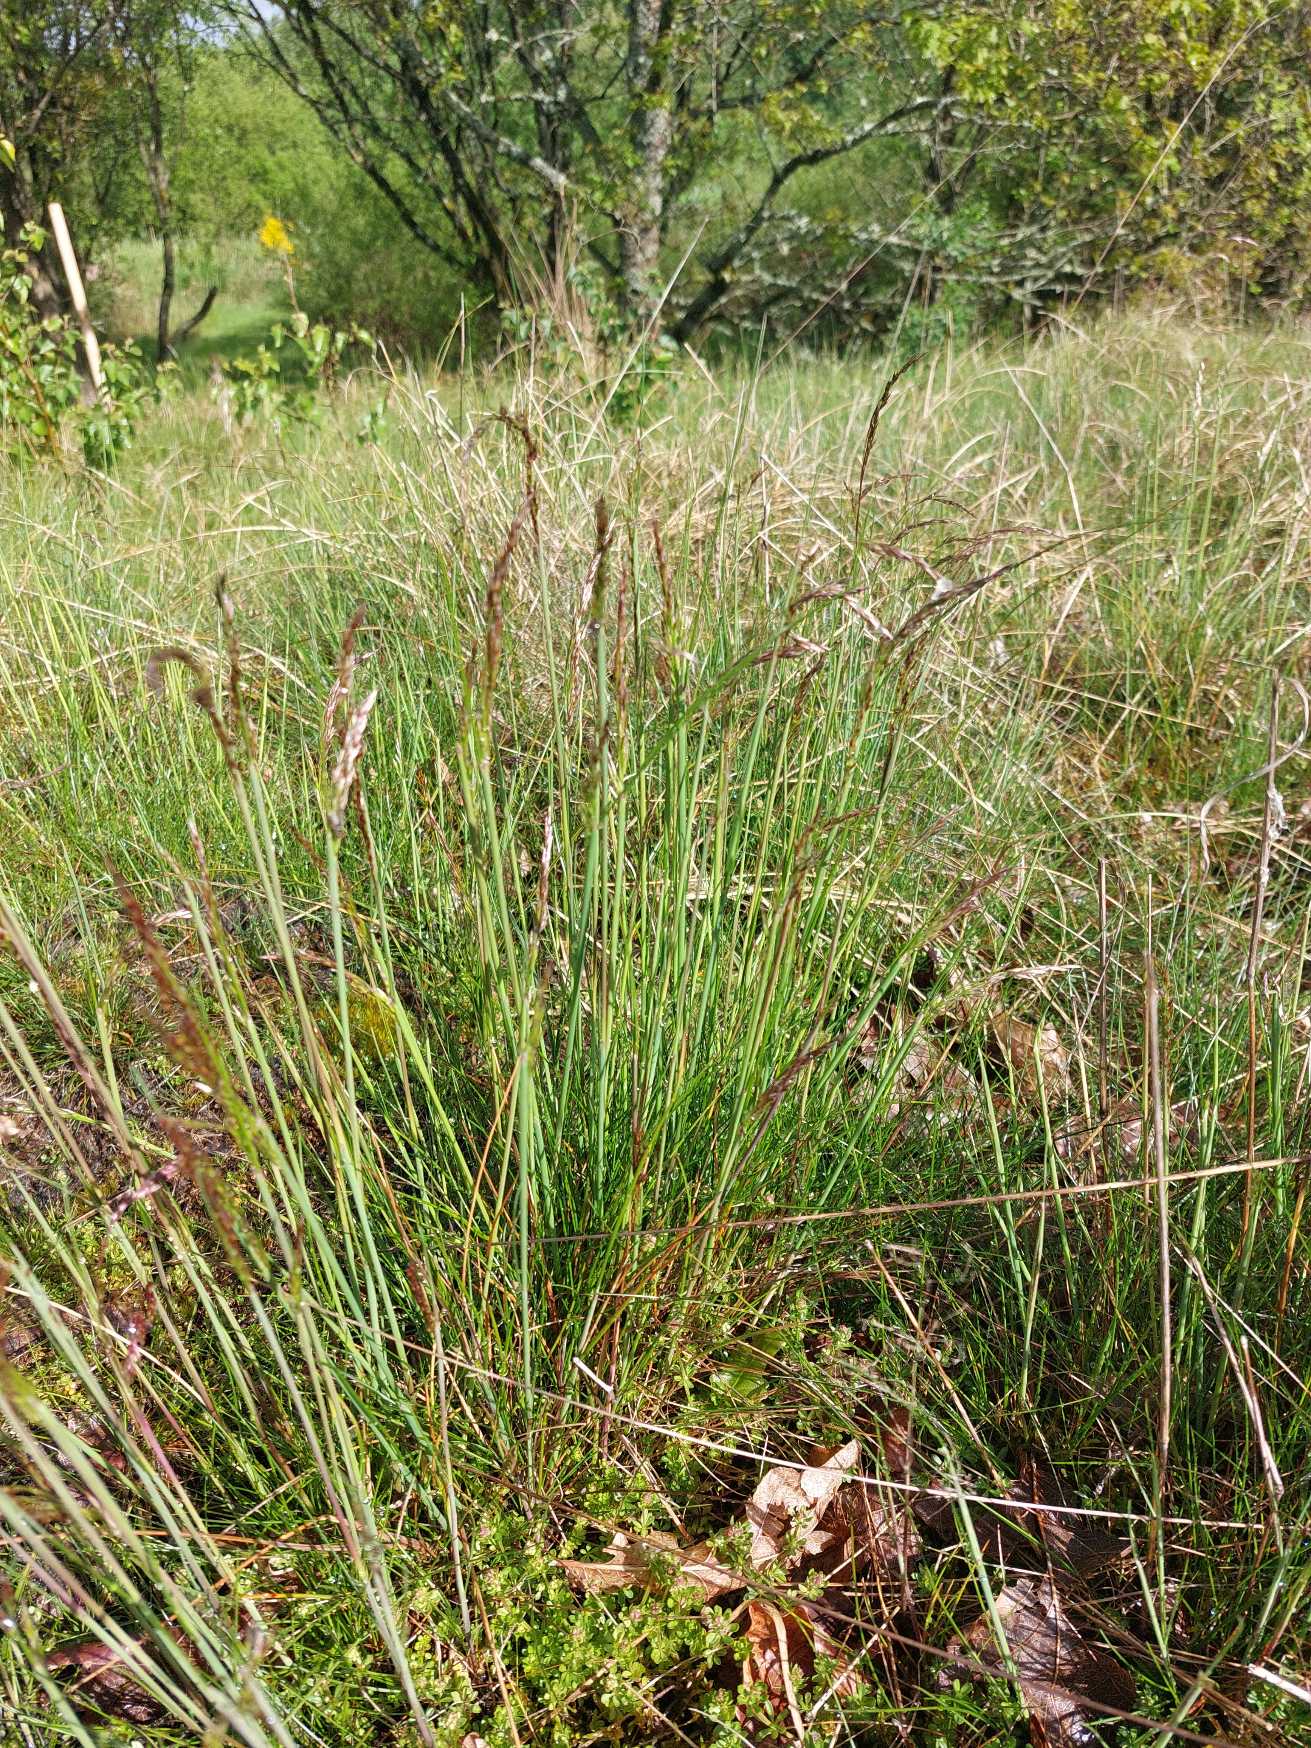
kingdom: Plantae
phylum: Tracheophyta
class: Liliopsida
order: Poales
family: Poaceae
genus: Avenella
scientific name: Avenella flexuosa
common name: Bølget bunke
